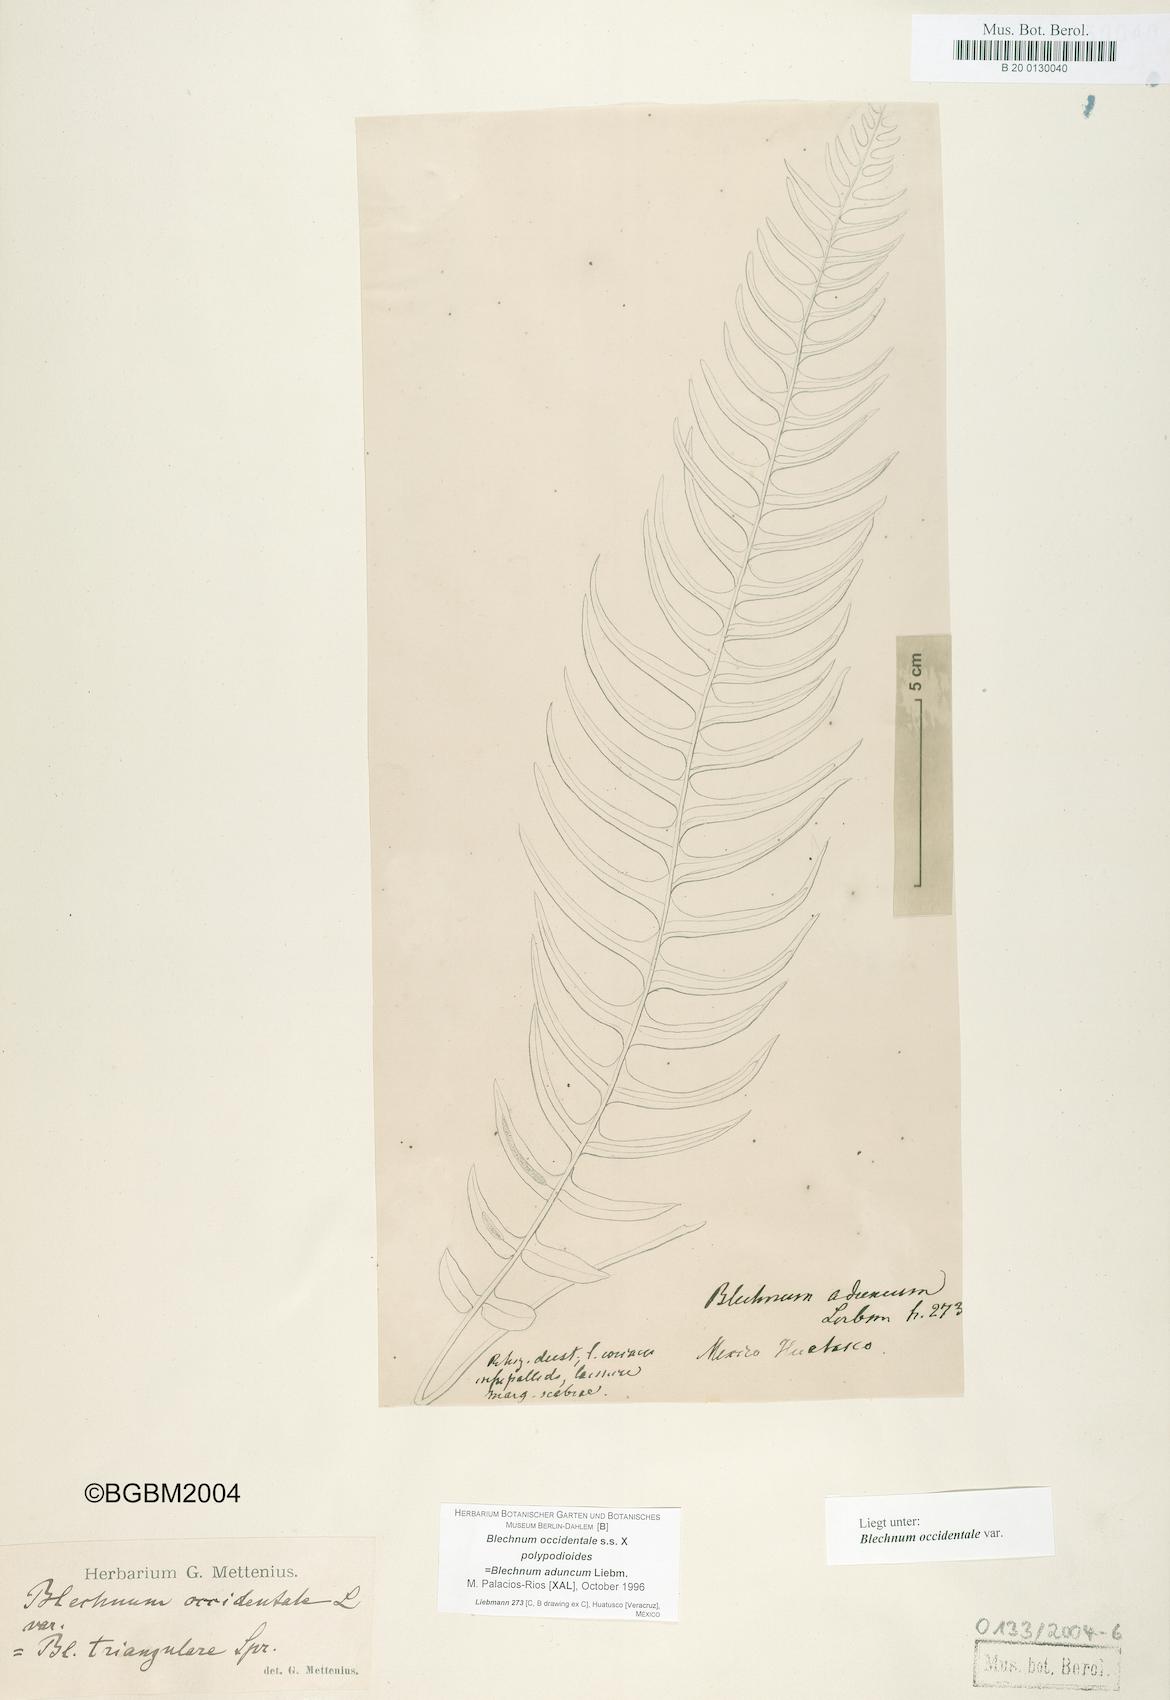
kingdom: Plantae
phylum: Tracheophyta
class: Polypodiopsida
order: Polypodiales
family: Blechnaceae
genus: Blechnum
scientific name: Blechnum occidentale
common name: Hammock fern
